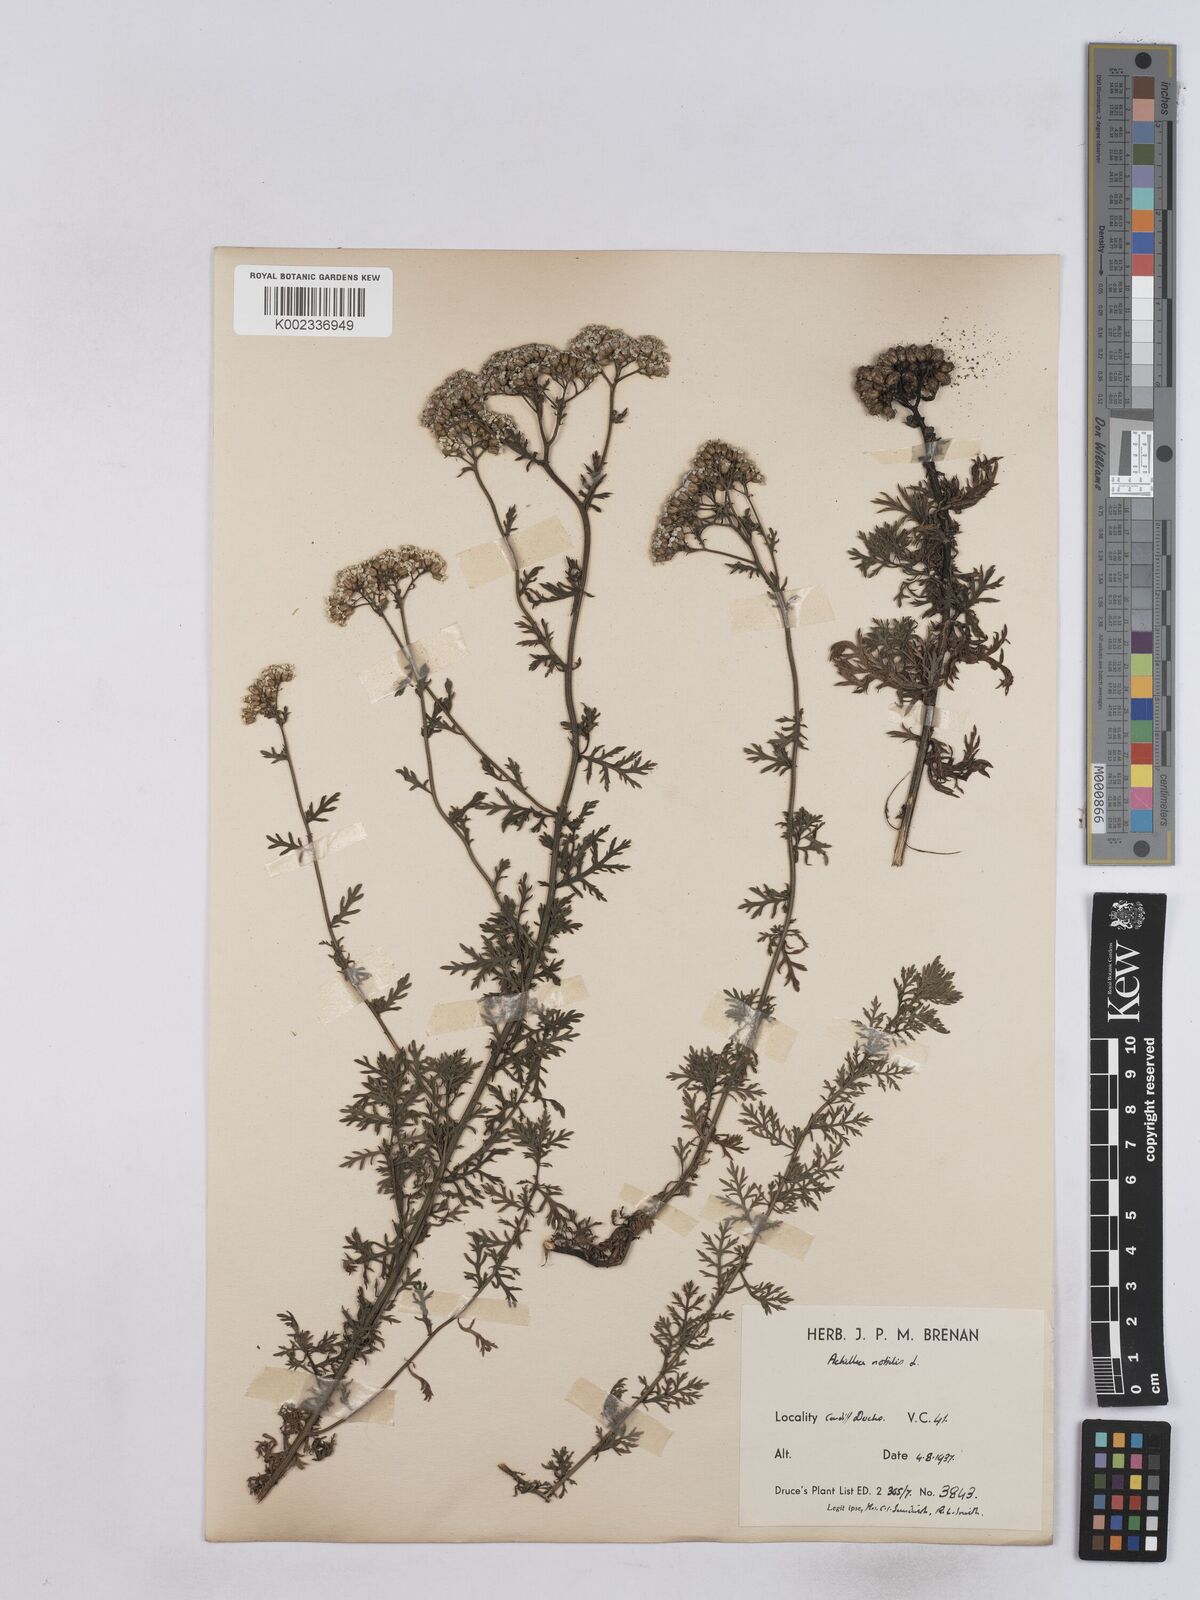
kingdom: Plantae
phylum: Tracheophyta
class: Magnoliopsida
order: Asterales
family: Asteraceae
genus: Achillea
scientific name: Achillea nobilis
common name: Noble yarrow
